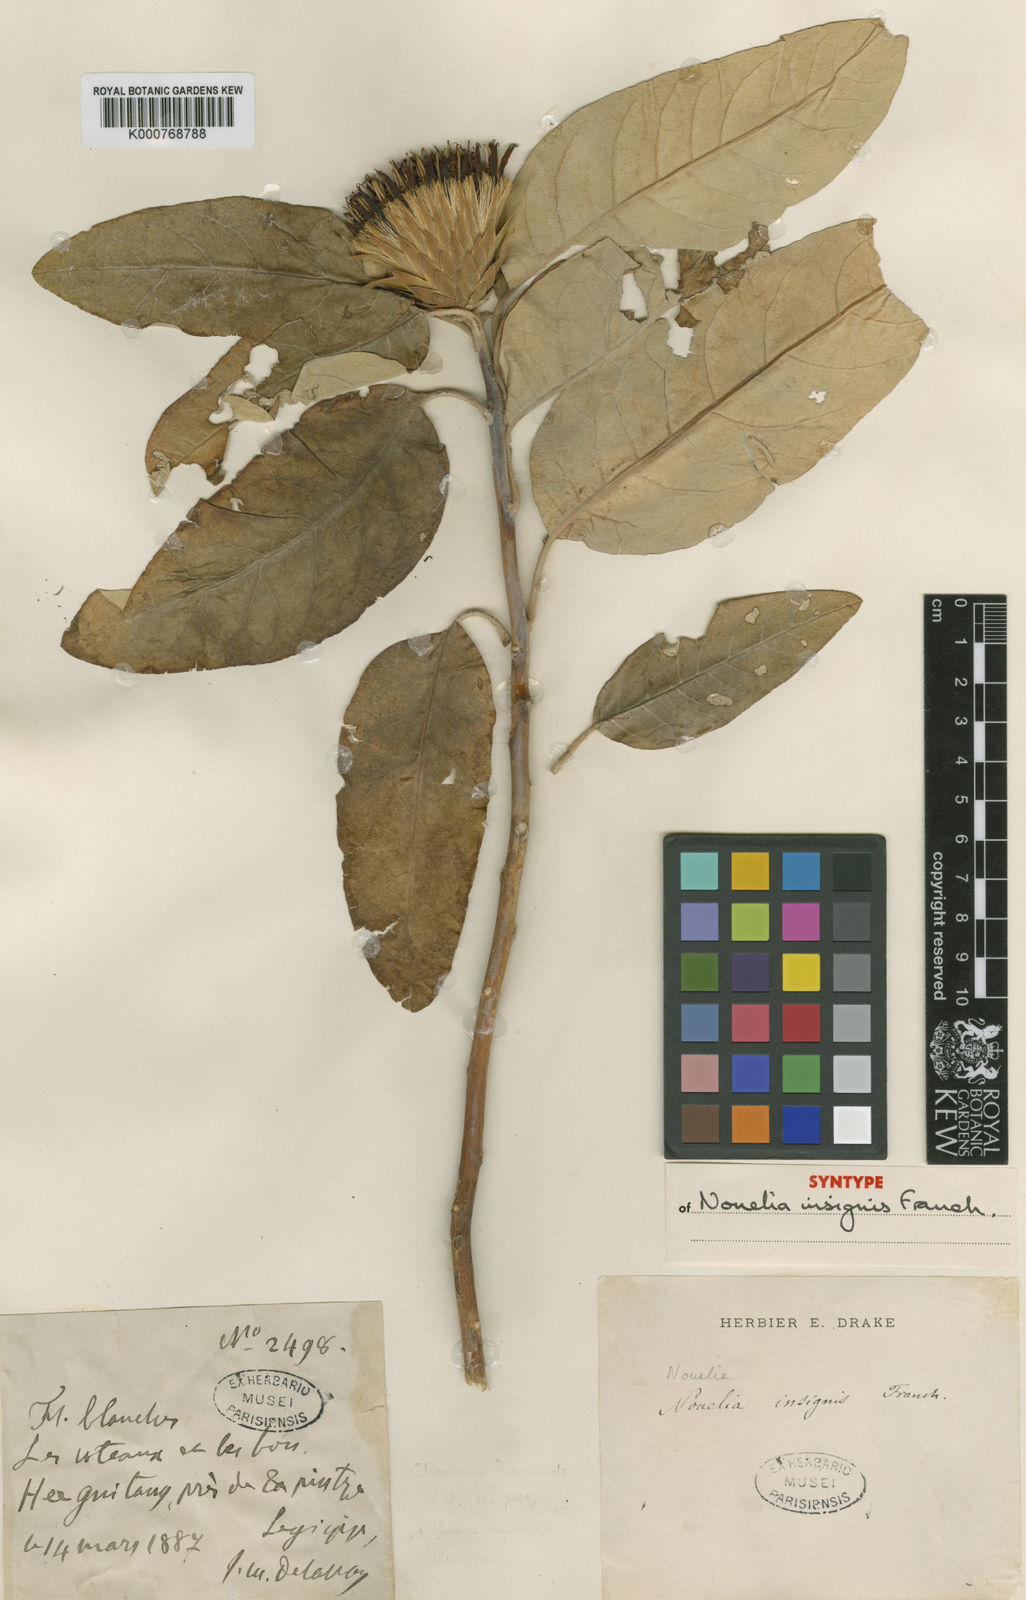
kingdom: Plantae
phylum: Tracheophyta
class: Magnoliopsida
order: Asterales
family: Asteraceae
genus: Nouelia
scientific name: Nouelia insignis
